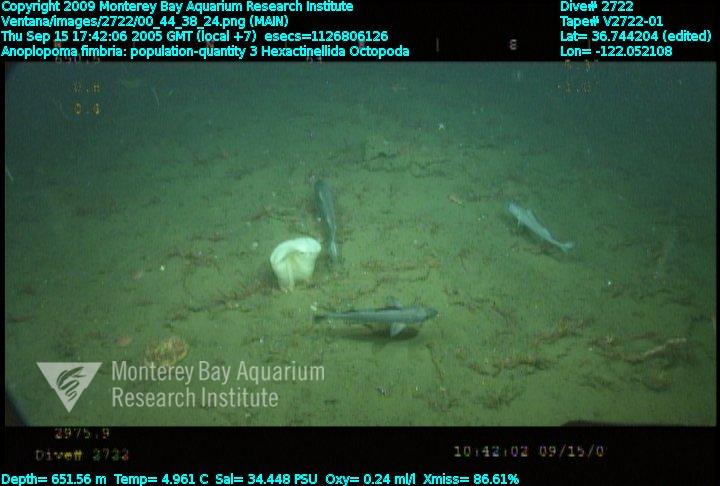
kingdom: Animalia
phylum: Porifera
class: Hexactinellida
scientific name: Hexactinellida
